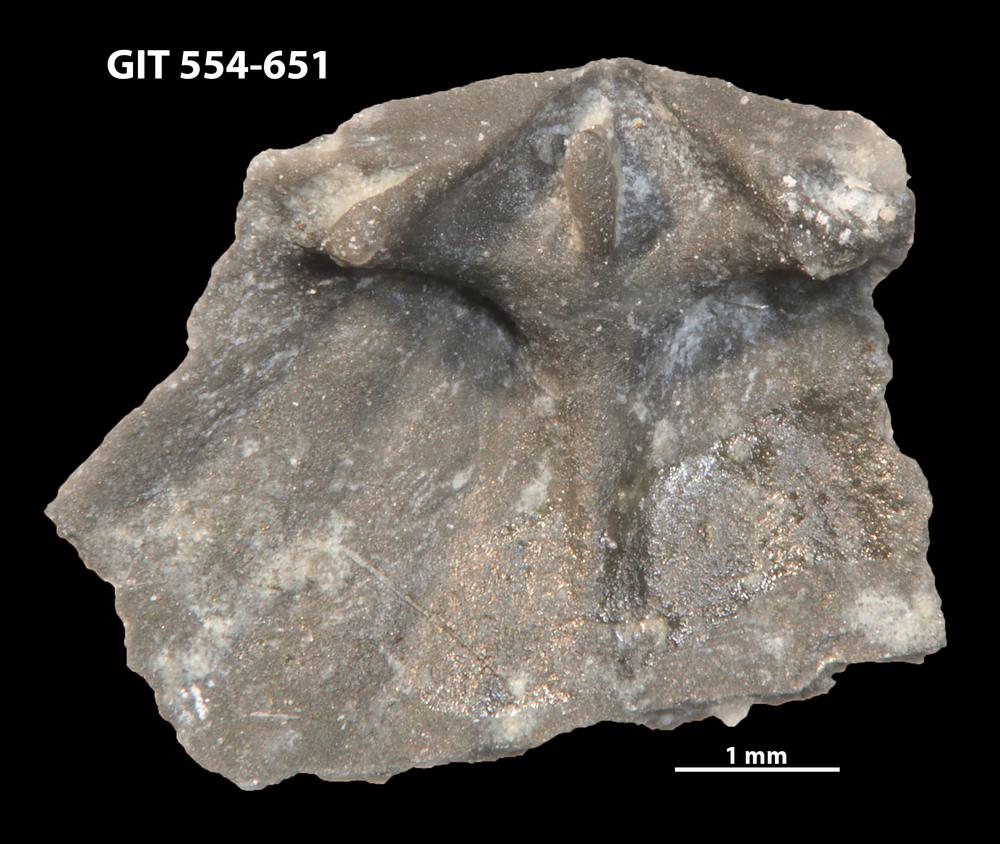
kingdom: Animalia
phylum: Brachiopoda
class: Rhynchonellata
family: Dolerorthidae
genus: Glyptorthis
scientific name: Glyptorthis irrupta
